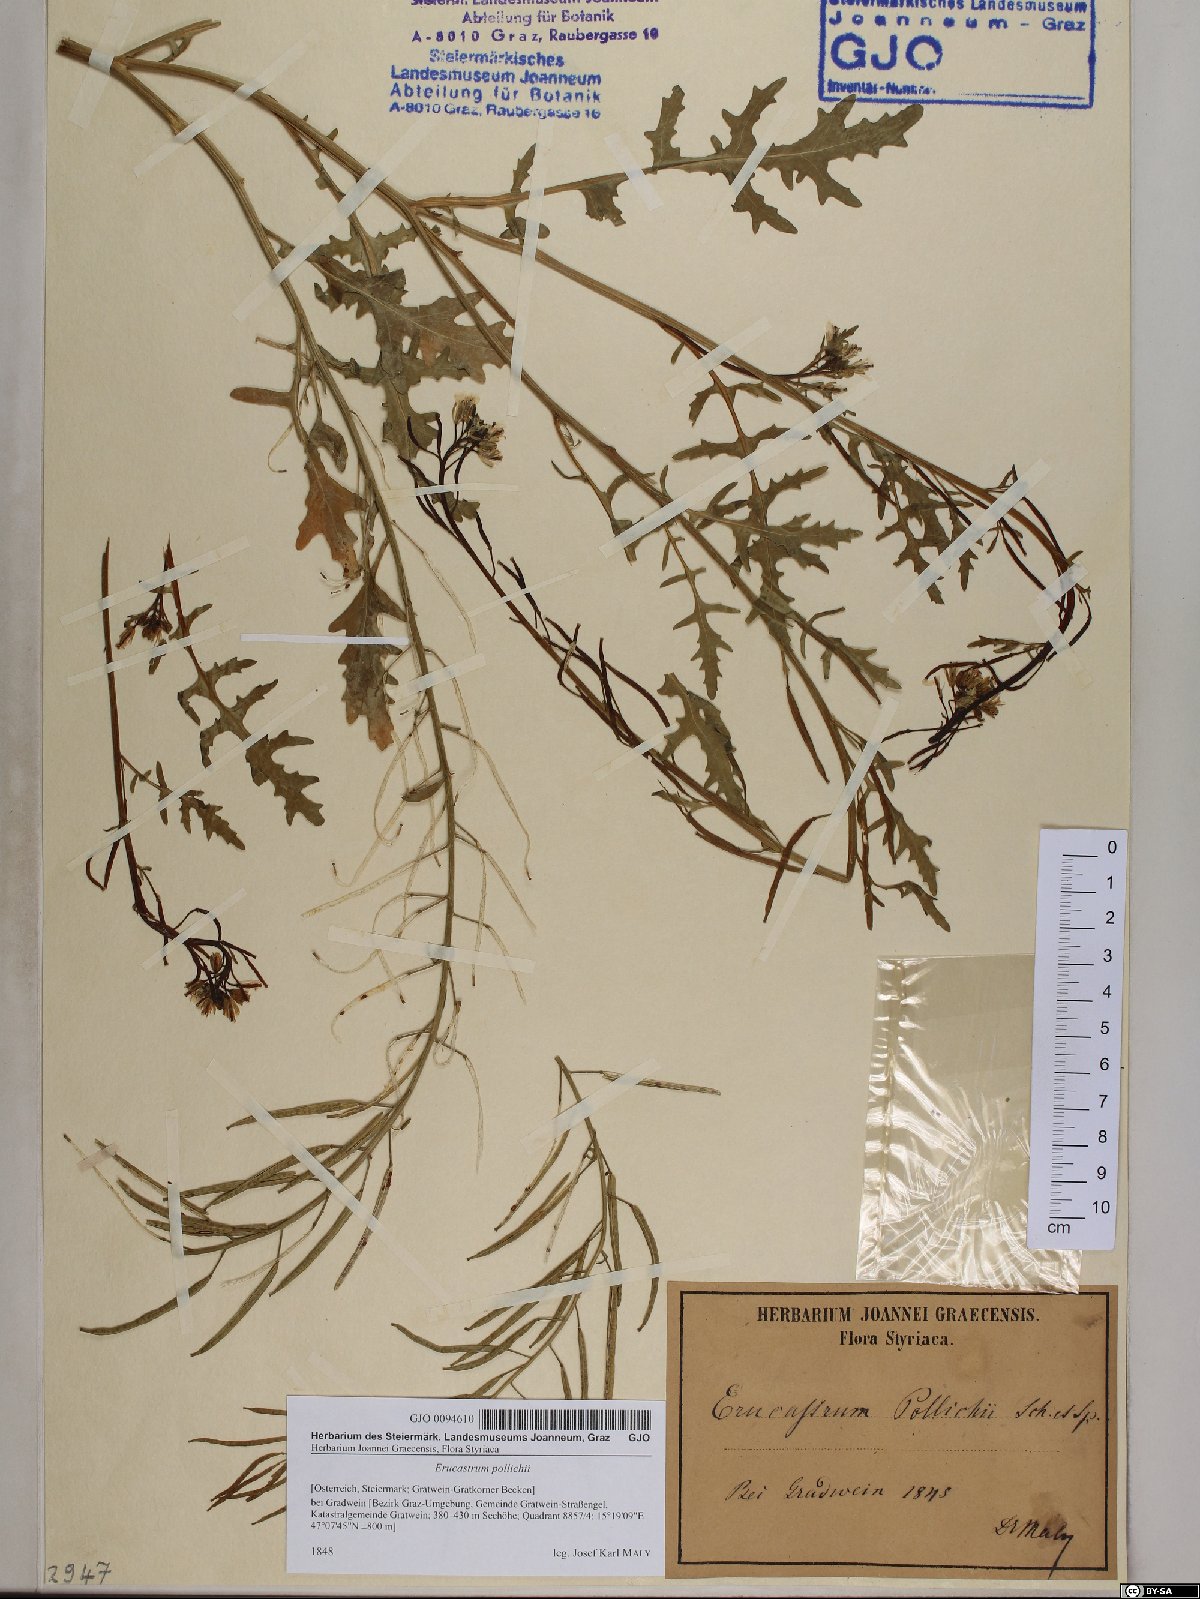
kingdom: Plantae
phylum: Tracheophyta
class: Magnoliopsida
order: Brassicales
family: Brassicaceae
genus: Erucastrum
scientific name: Erucastrum gallicum
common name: Hairy rocket
